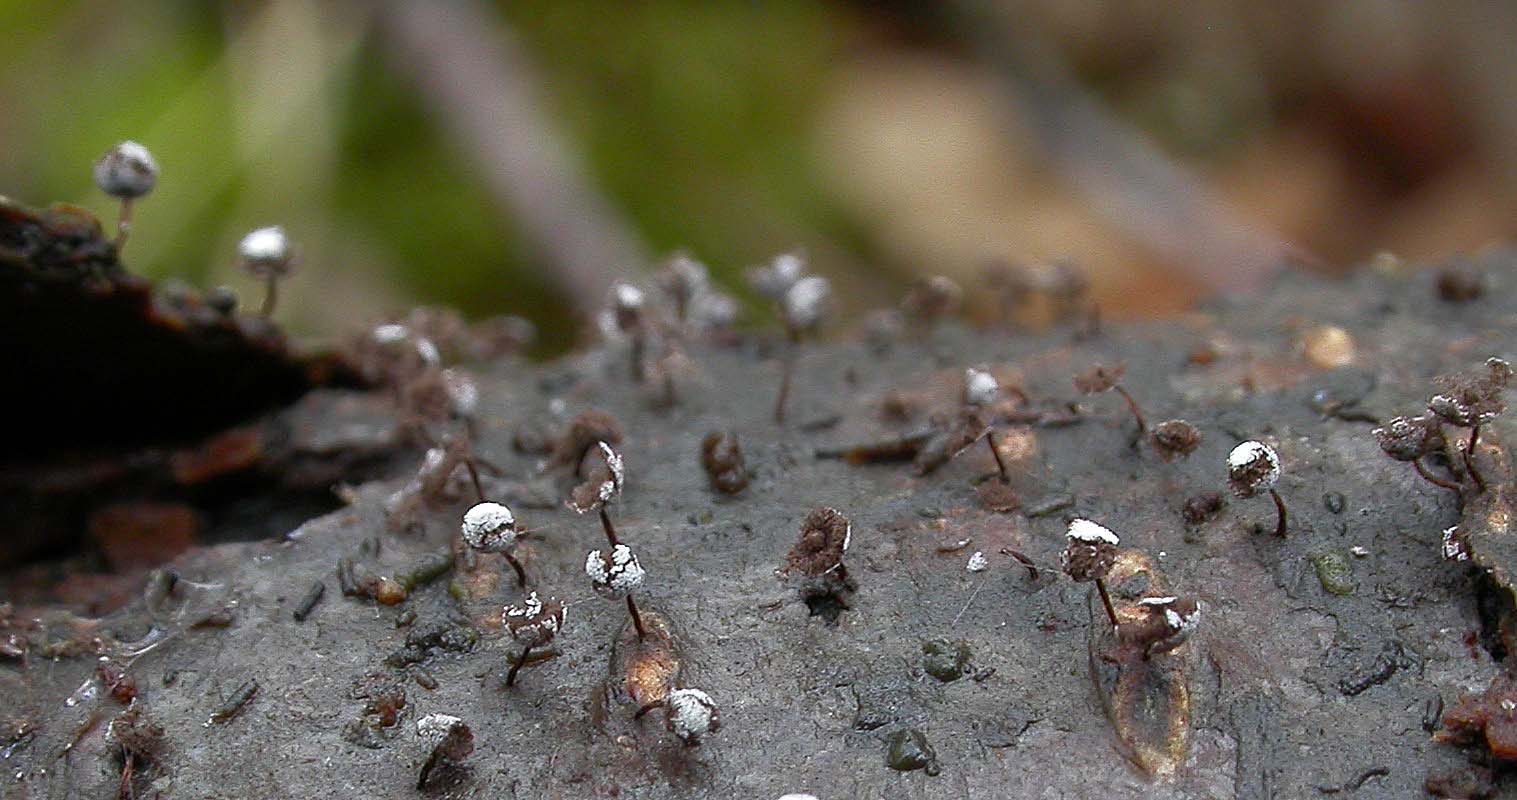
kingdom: Protozoa
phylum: Mycetozoa
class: Myxomycetes
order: Physarales
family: Didymiaceae
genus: Didymium
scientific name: Didymium nigripes
